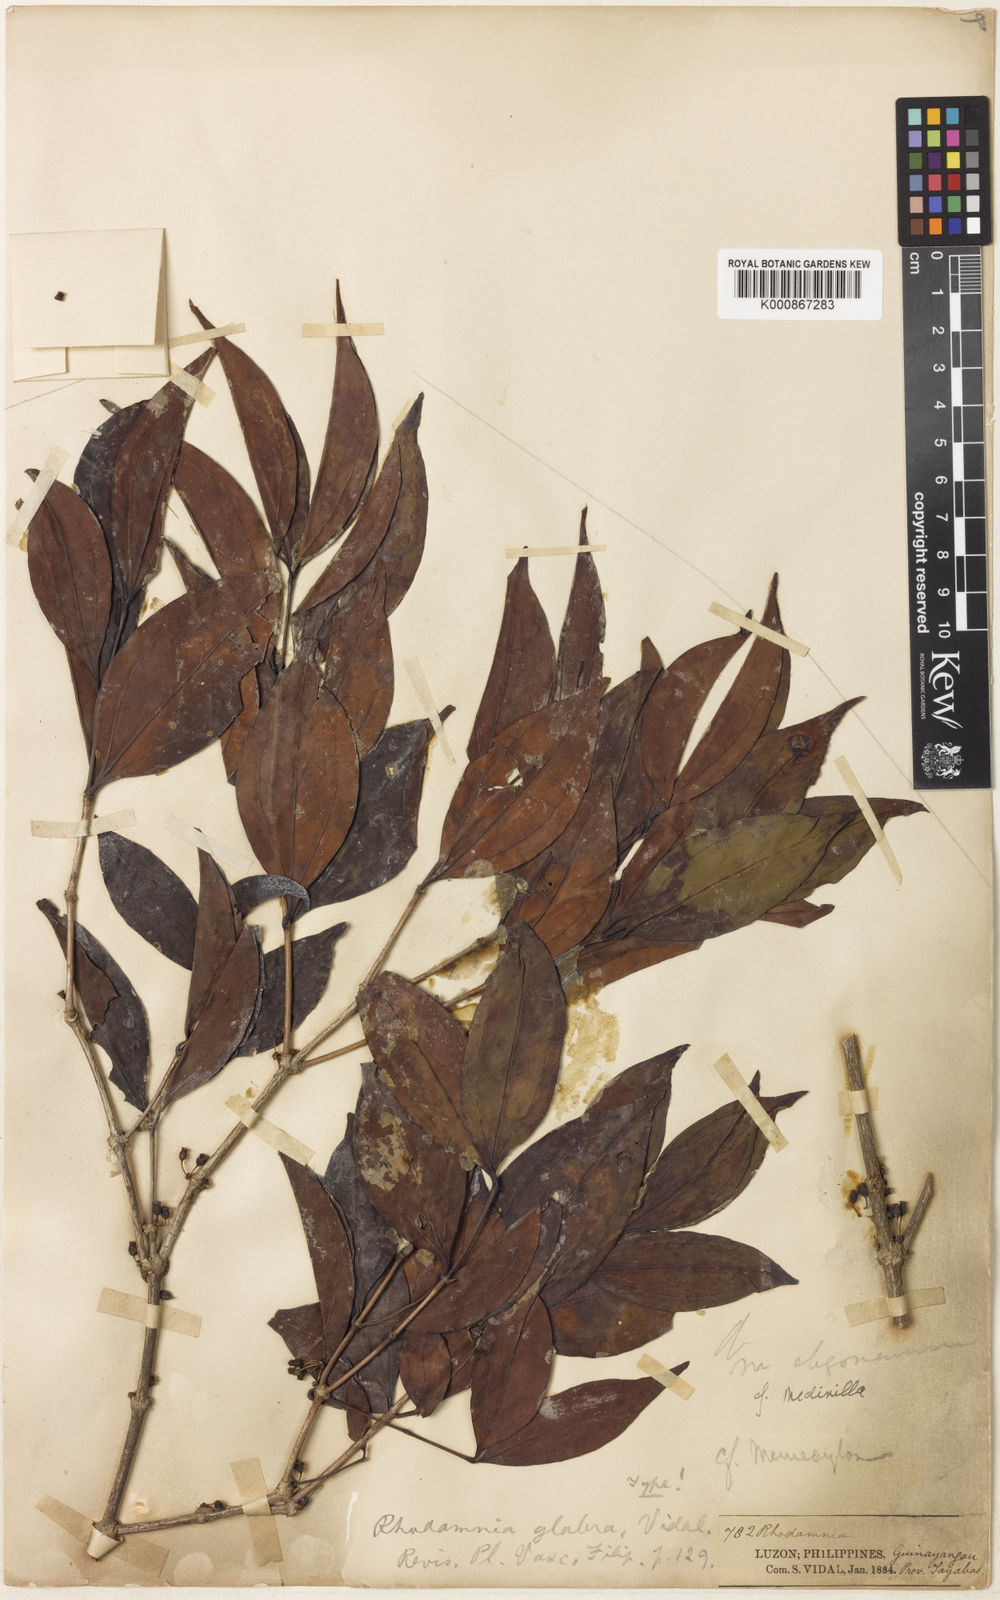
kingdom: Plantae
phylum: Tracheophyta
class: Magnoliopsida
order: Myrtales
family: Melastomataceae
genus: Medinilla
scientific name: Medinilla
